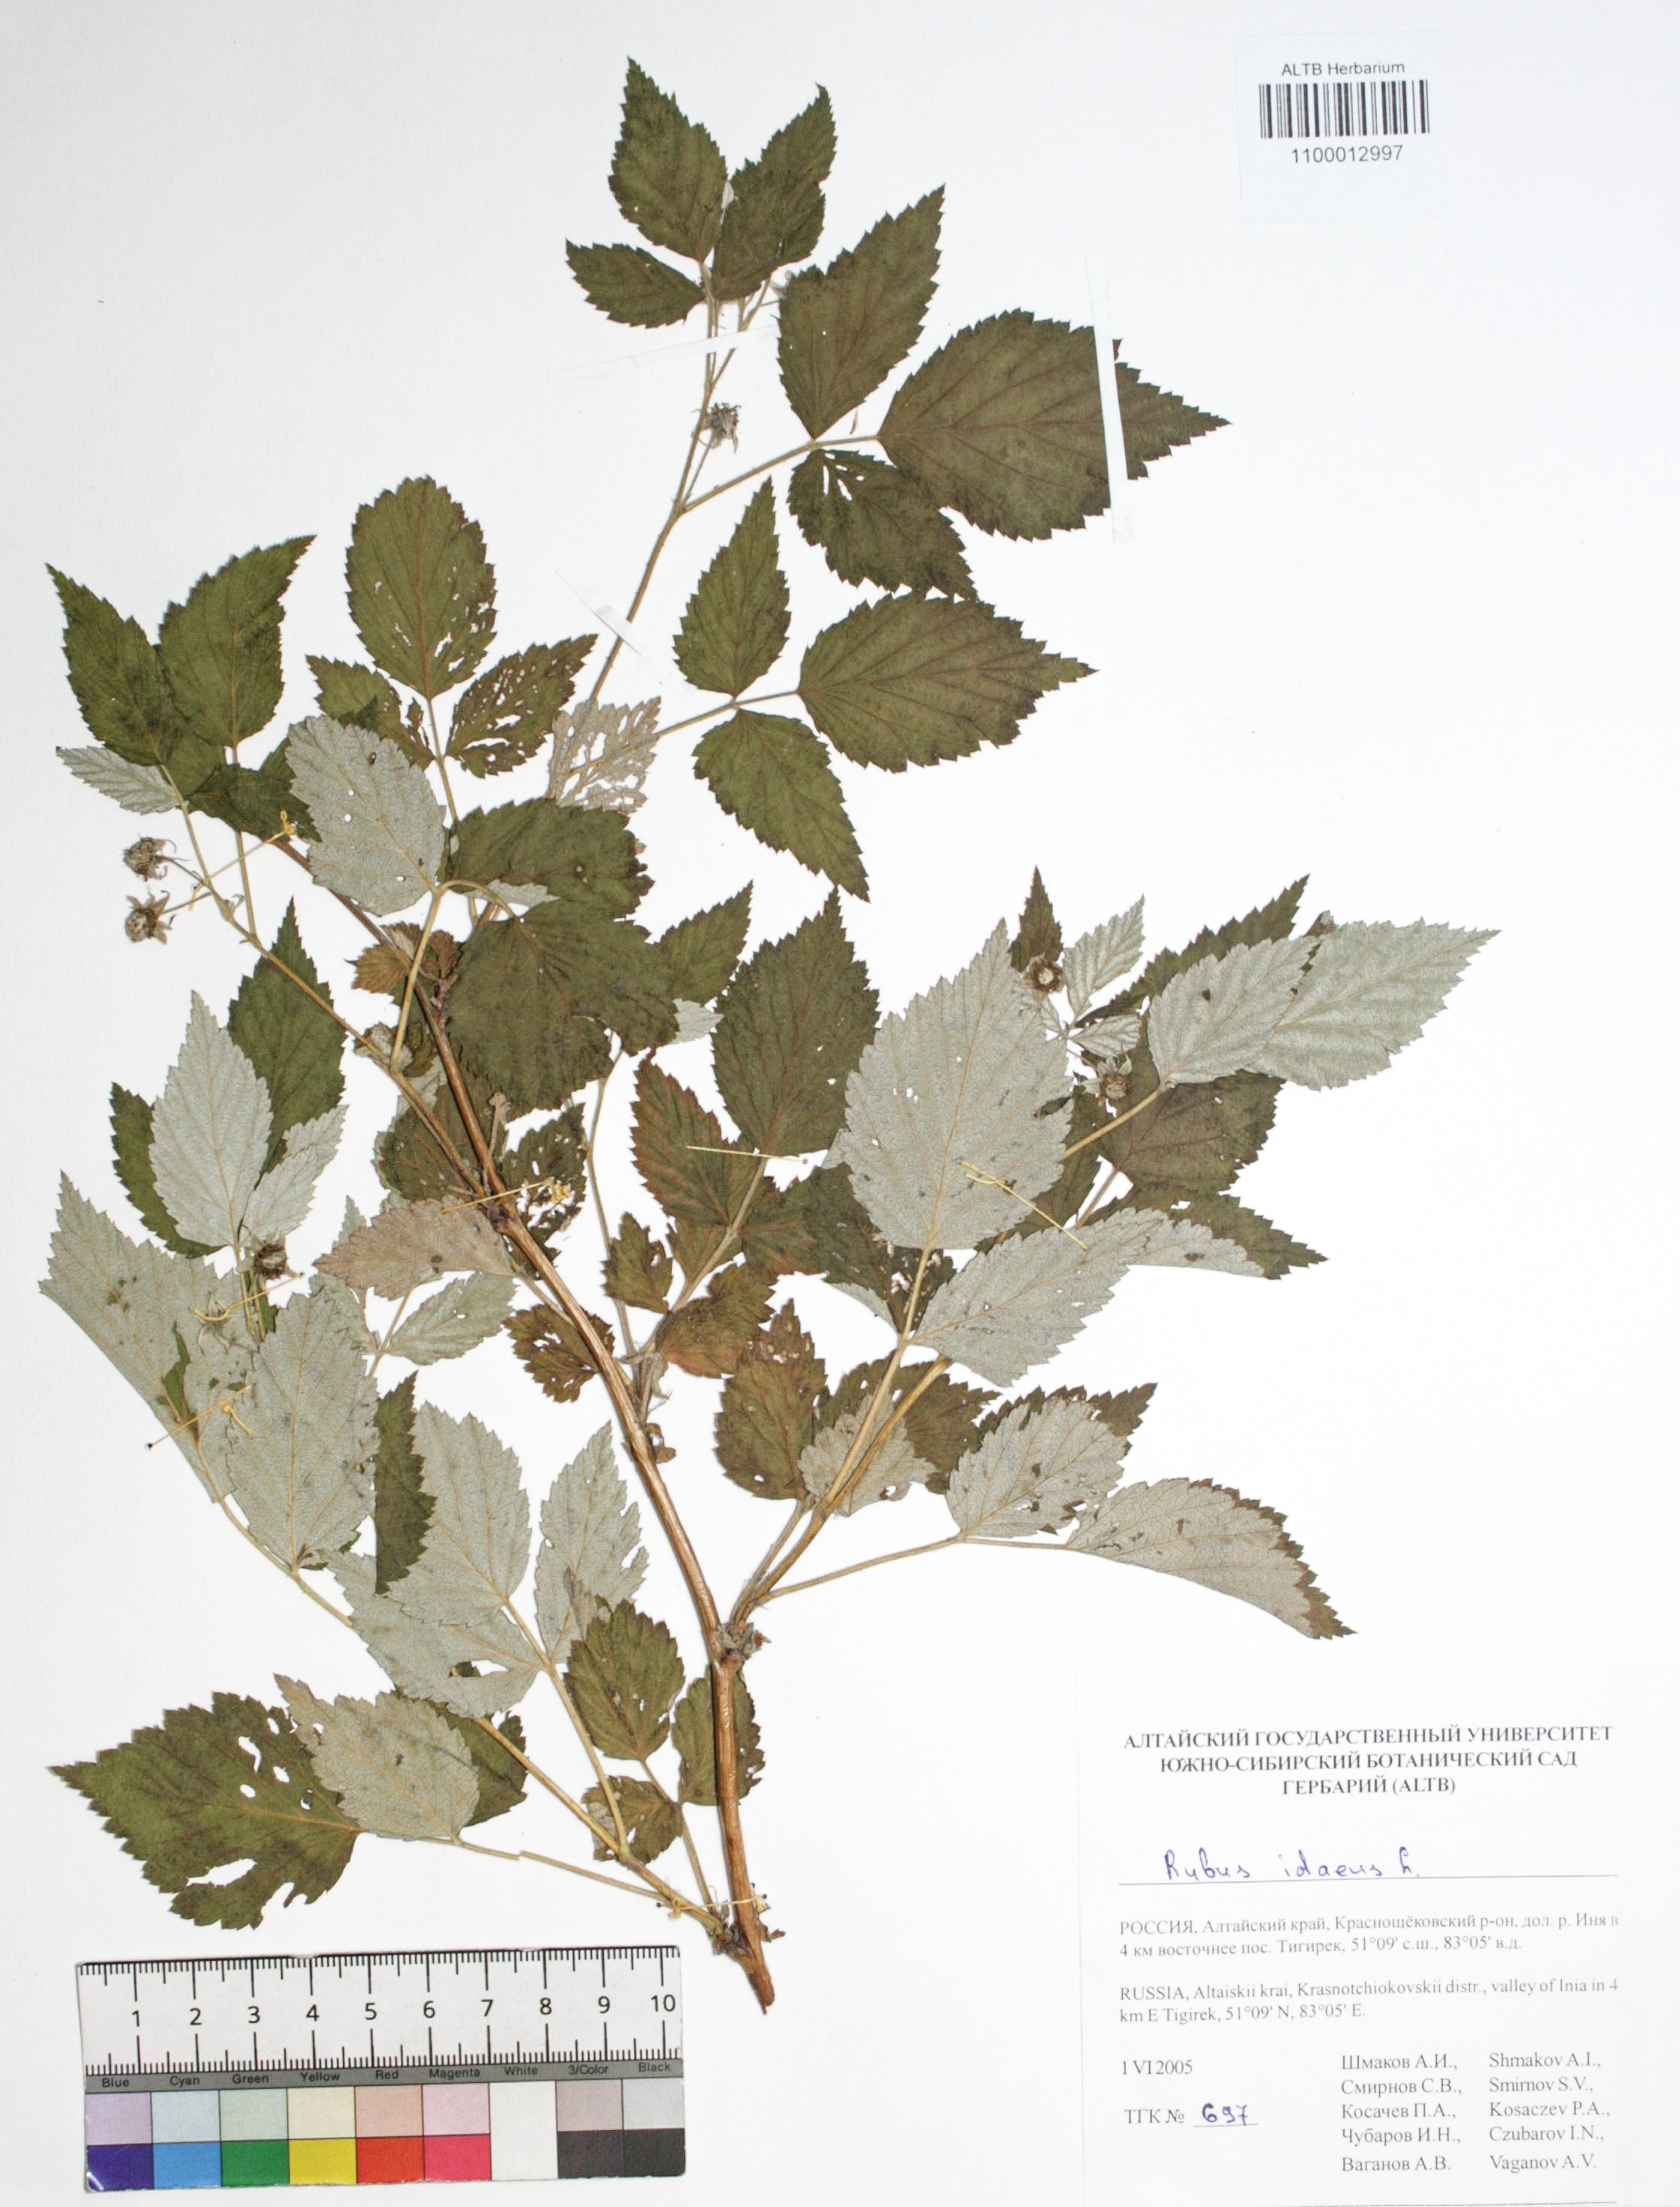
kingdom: Plantae
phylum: Tracheophyta
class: Magnoliopsida
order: Rosales
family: Rosaceae
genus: Rubus
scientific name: Rubus idaeus
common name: Raspberry
